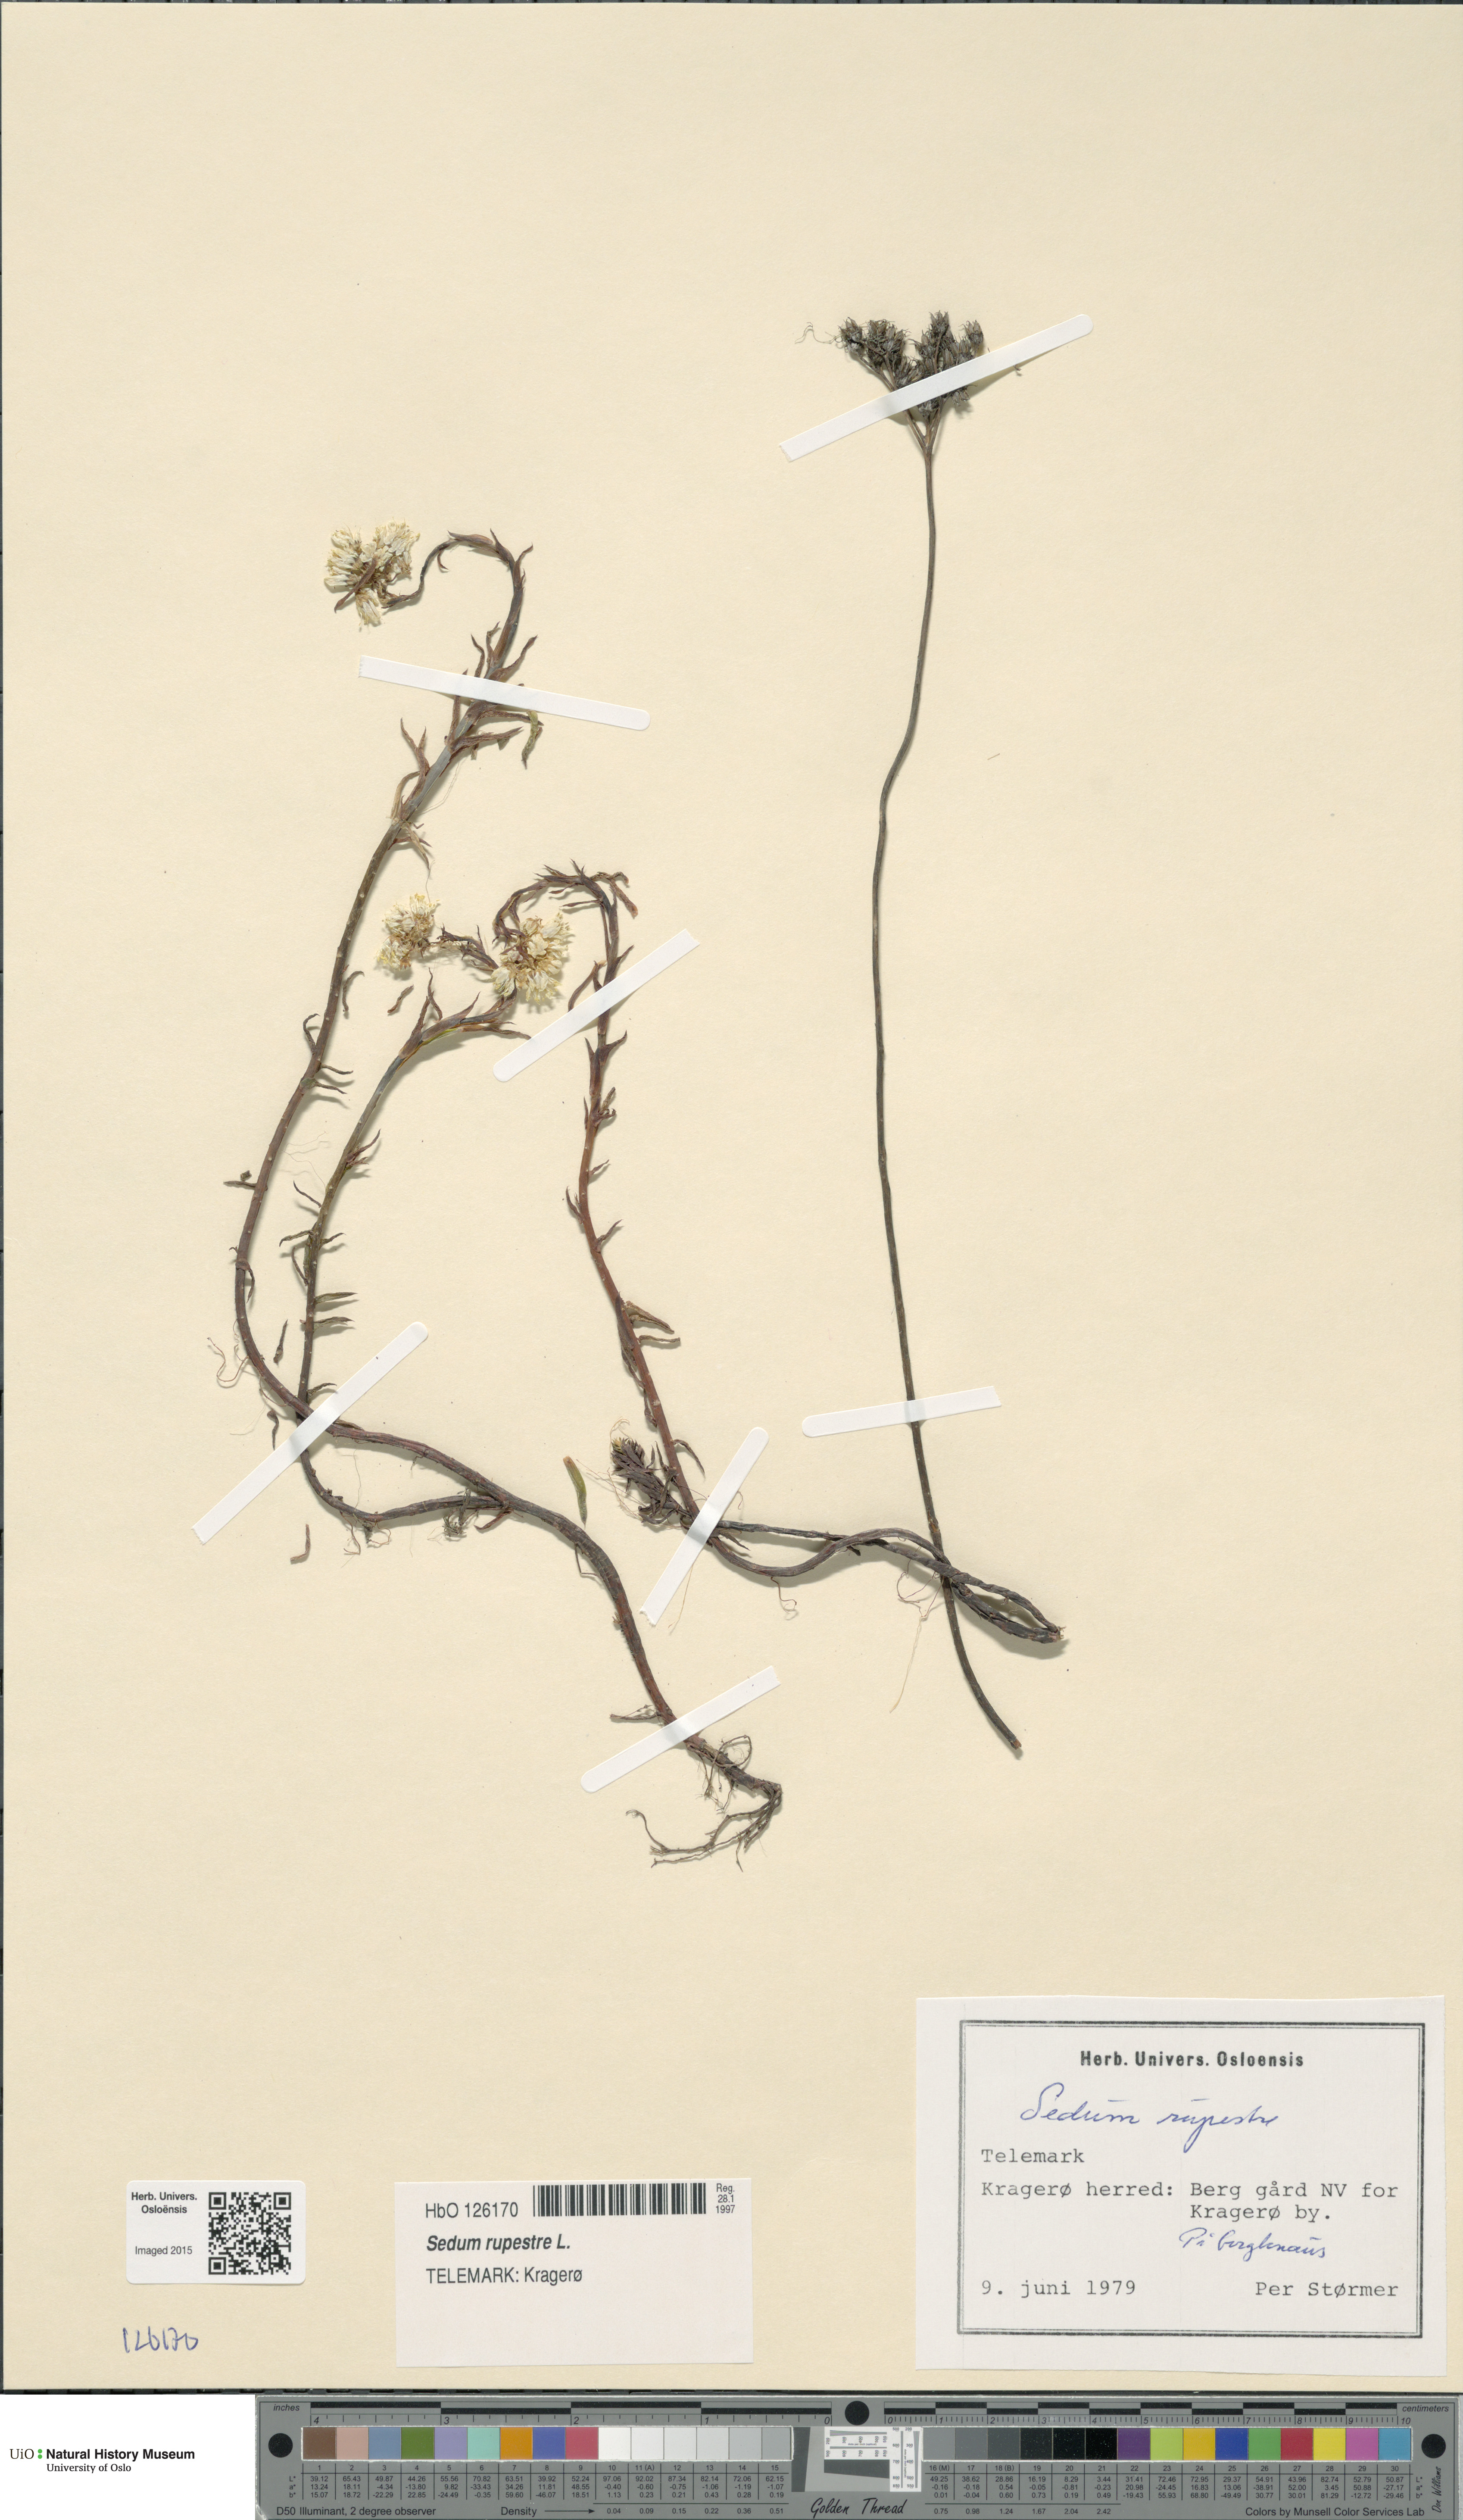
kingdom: Plantae
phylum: Tracheophyta
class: Magnoliopsida
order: Saxifragales
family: Crassulaceae
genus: Petrosedum
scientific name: Petrosedum rupestre
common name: Jenny's stonecrop
